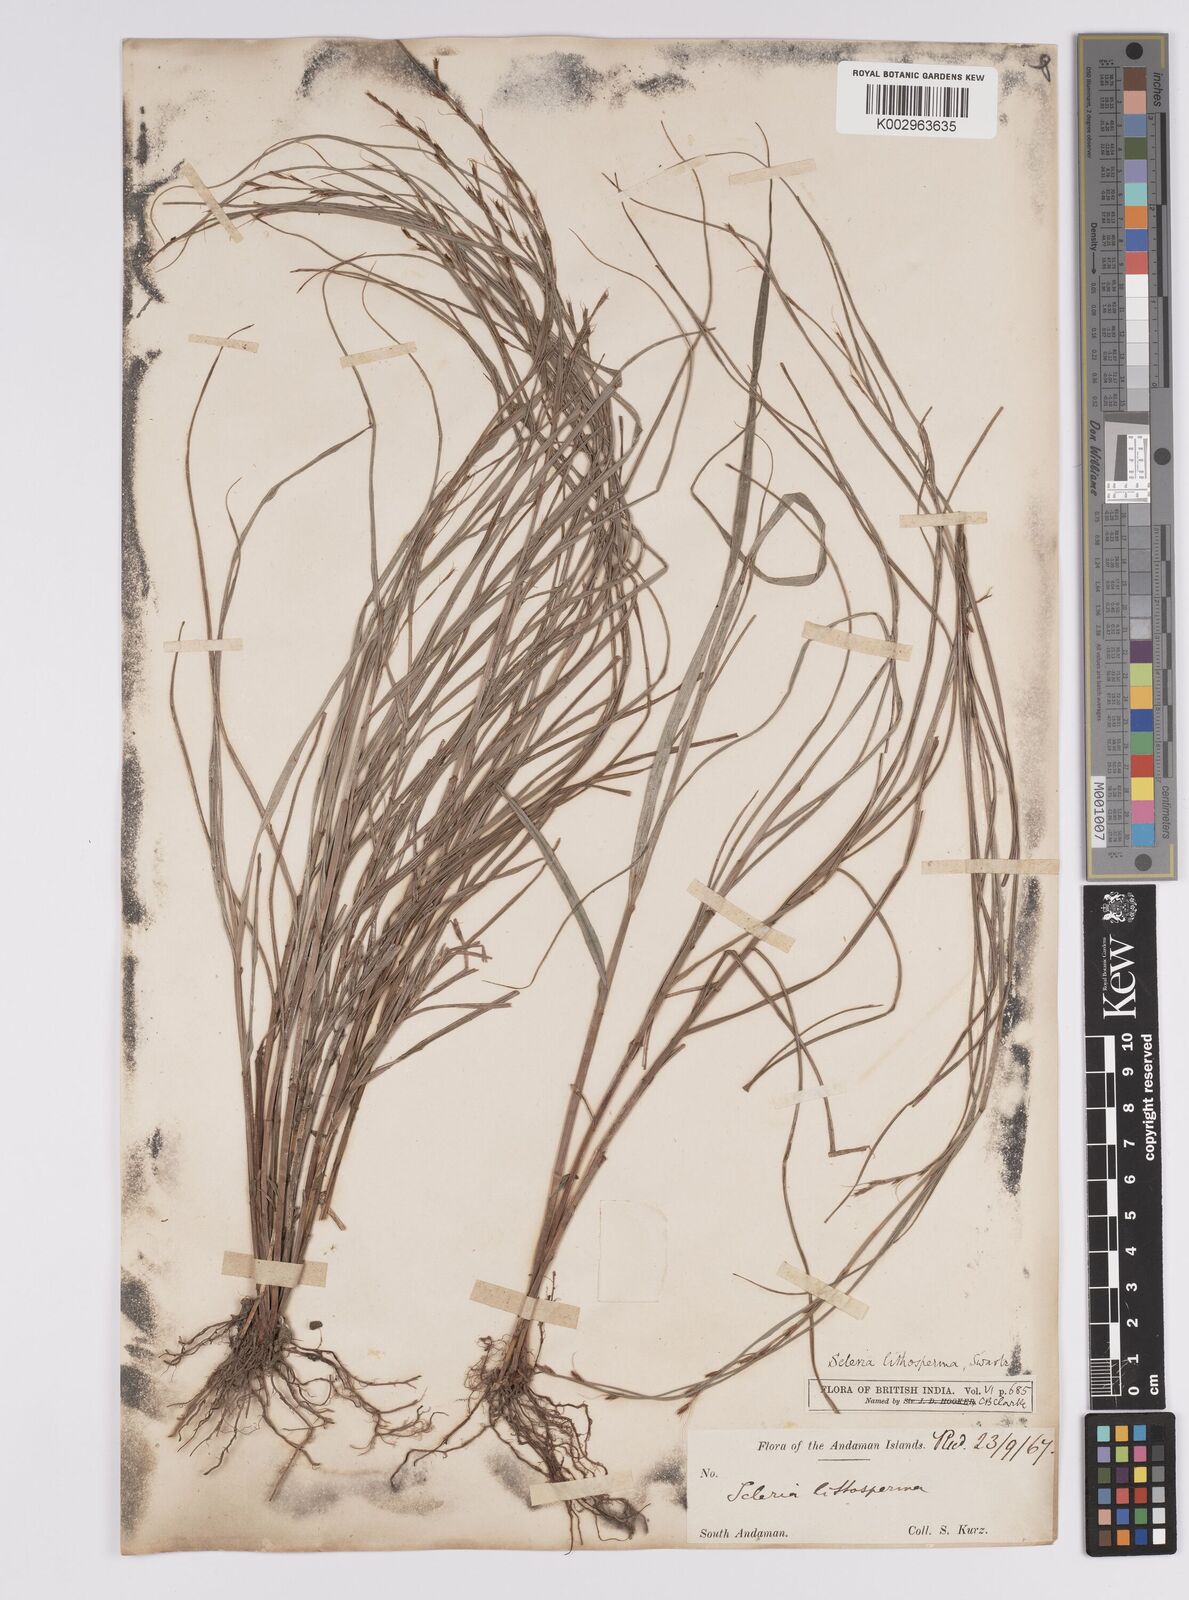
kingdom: Plantae
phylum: Tracheophyta
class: Liliopsida
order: Poales
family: Cyperaceae
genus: Scleria
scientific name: Scleria lithosperma
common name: Florida keys nut-rush
